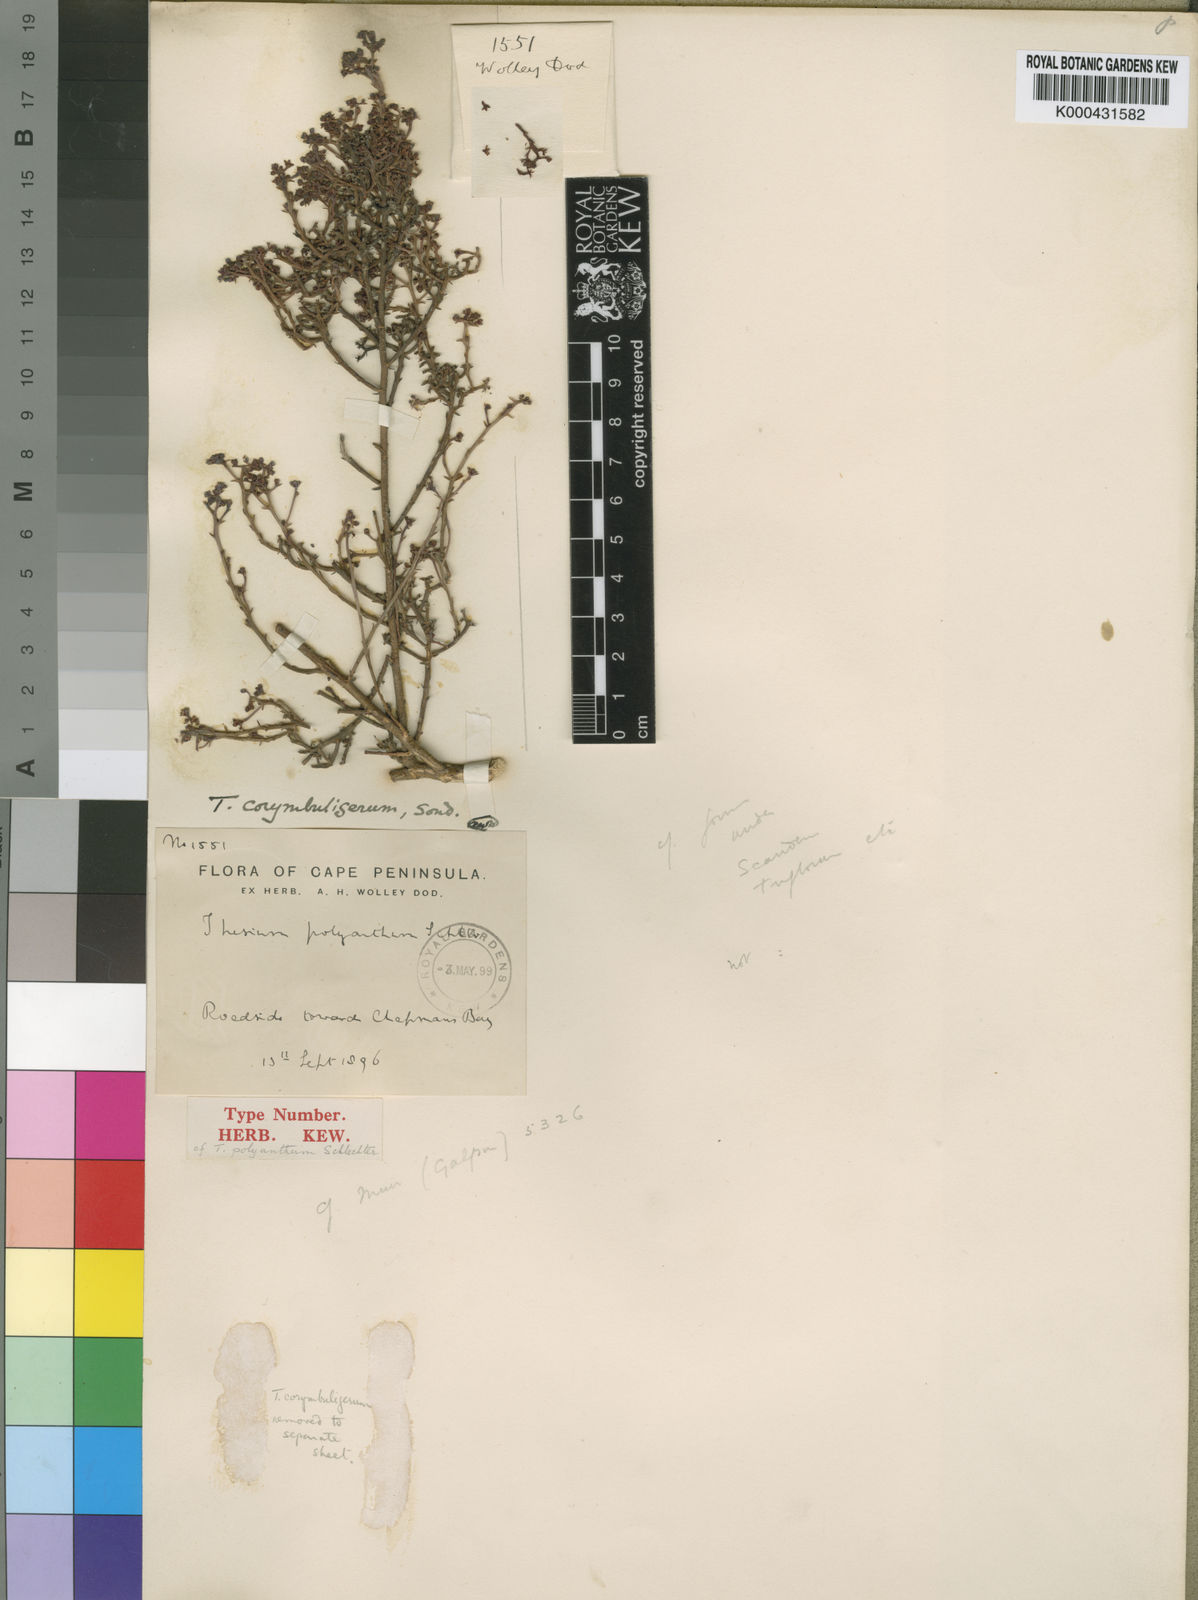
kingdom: Plantae
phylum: Tracheophyta
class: Magnoliopsida
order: Santalales
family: Thesiaceae
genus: Thesium
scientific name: Thesium virgatum
